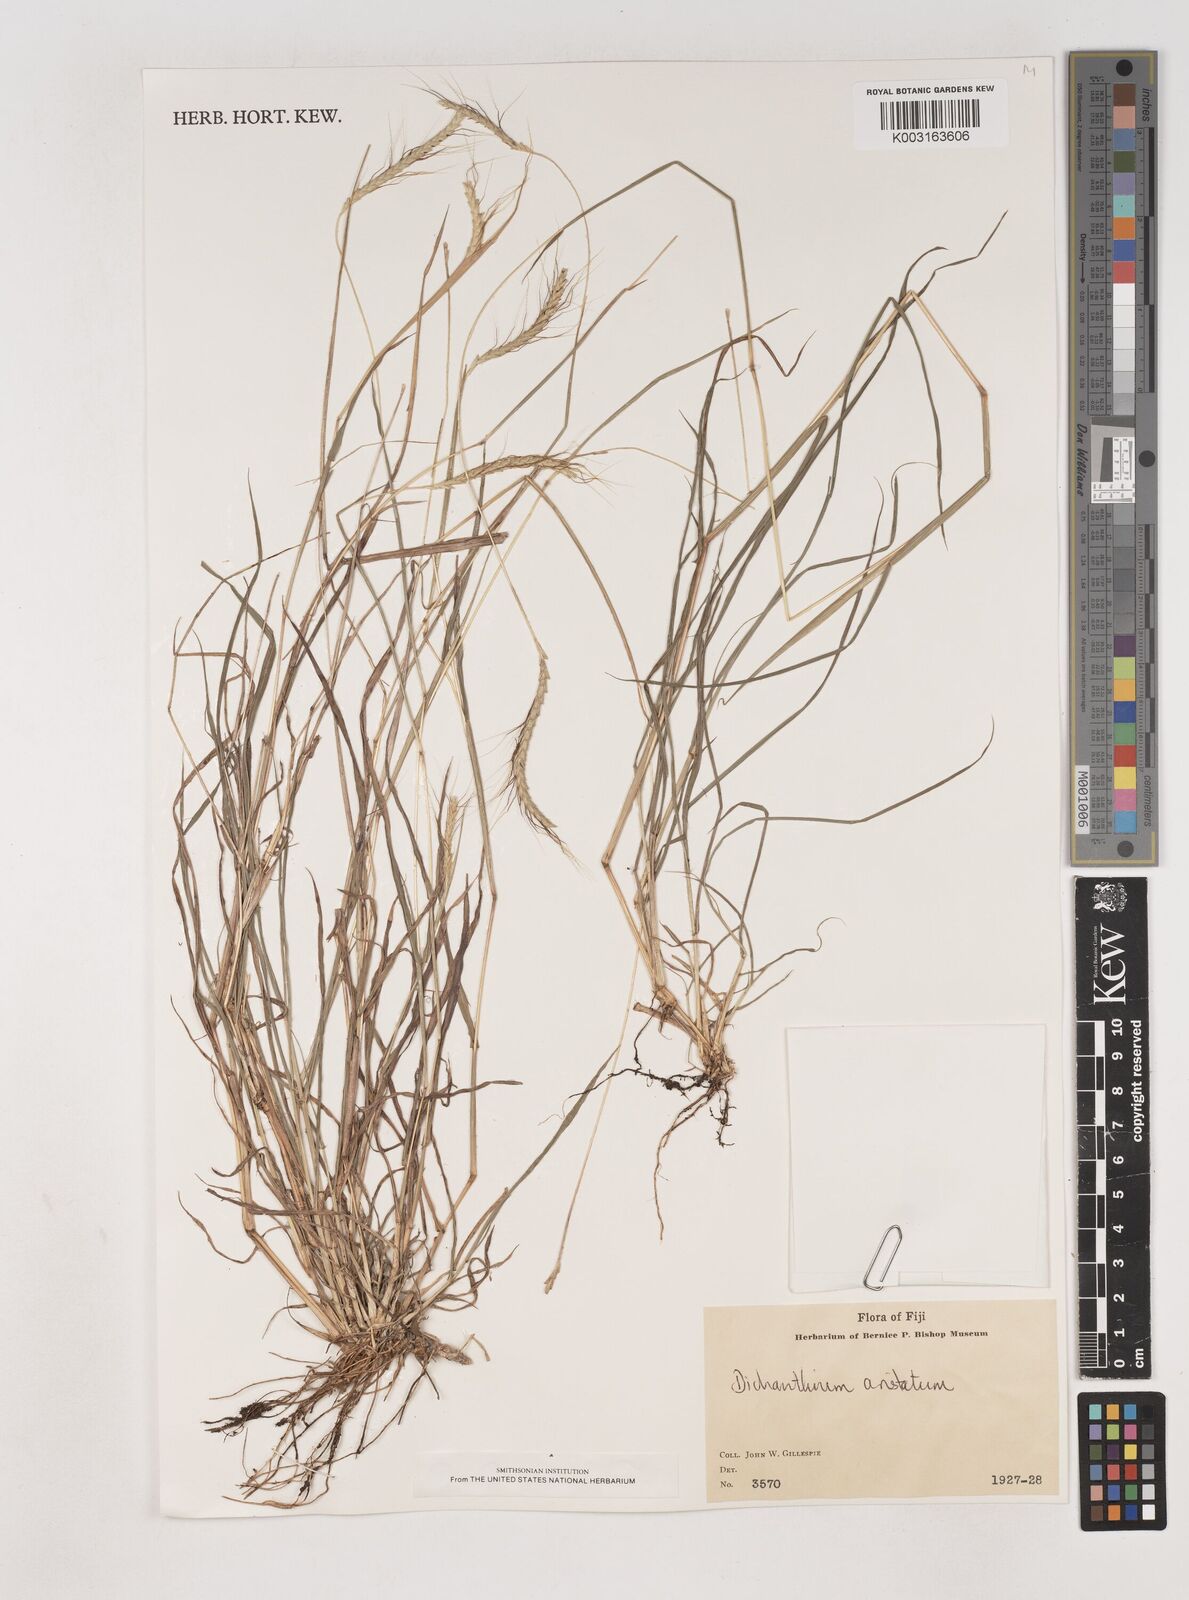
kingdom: Plantae
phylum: Tracheophyta
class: Liliopsida
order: Poales
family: Poaceae
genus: Dichanthium
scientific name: Dichanthium aristatum
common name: Angleton bluestem
